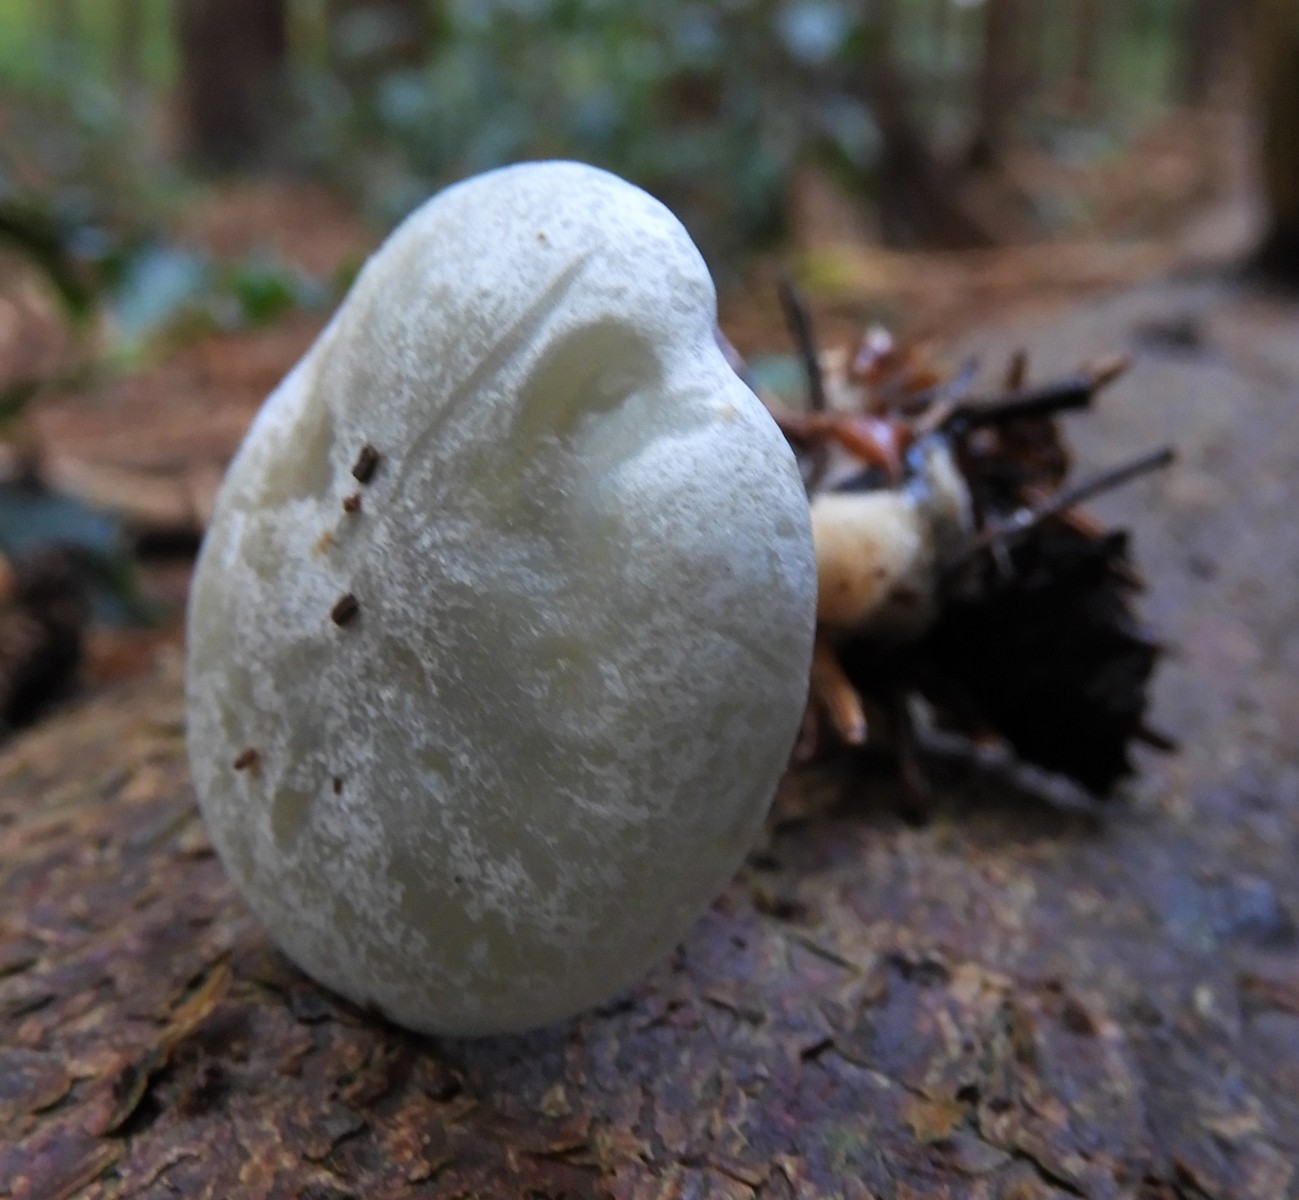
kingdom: Fungi
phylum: Basidiomycota
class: Agaricomycetes
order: Agaricales
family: Tricholomataceae
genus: Clitocybe
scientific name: Clitocybe odora
